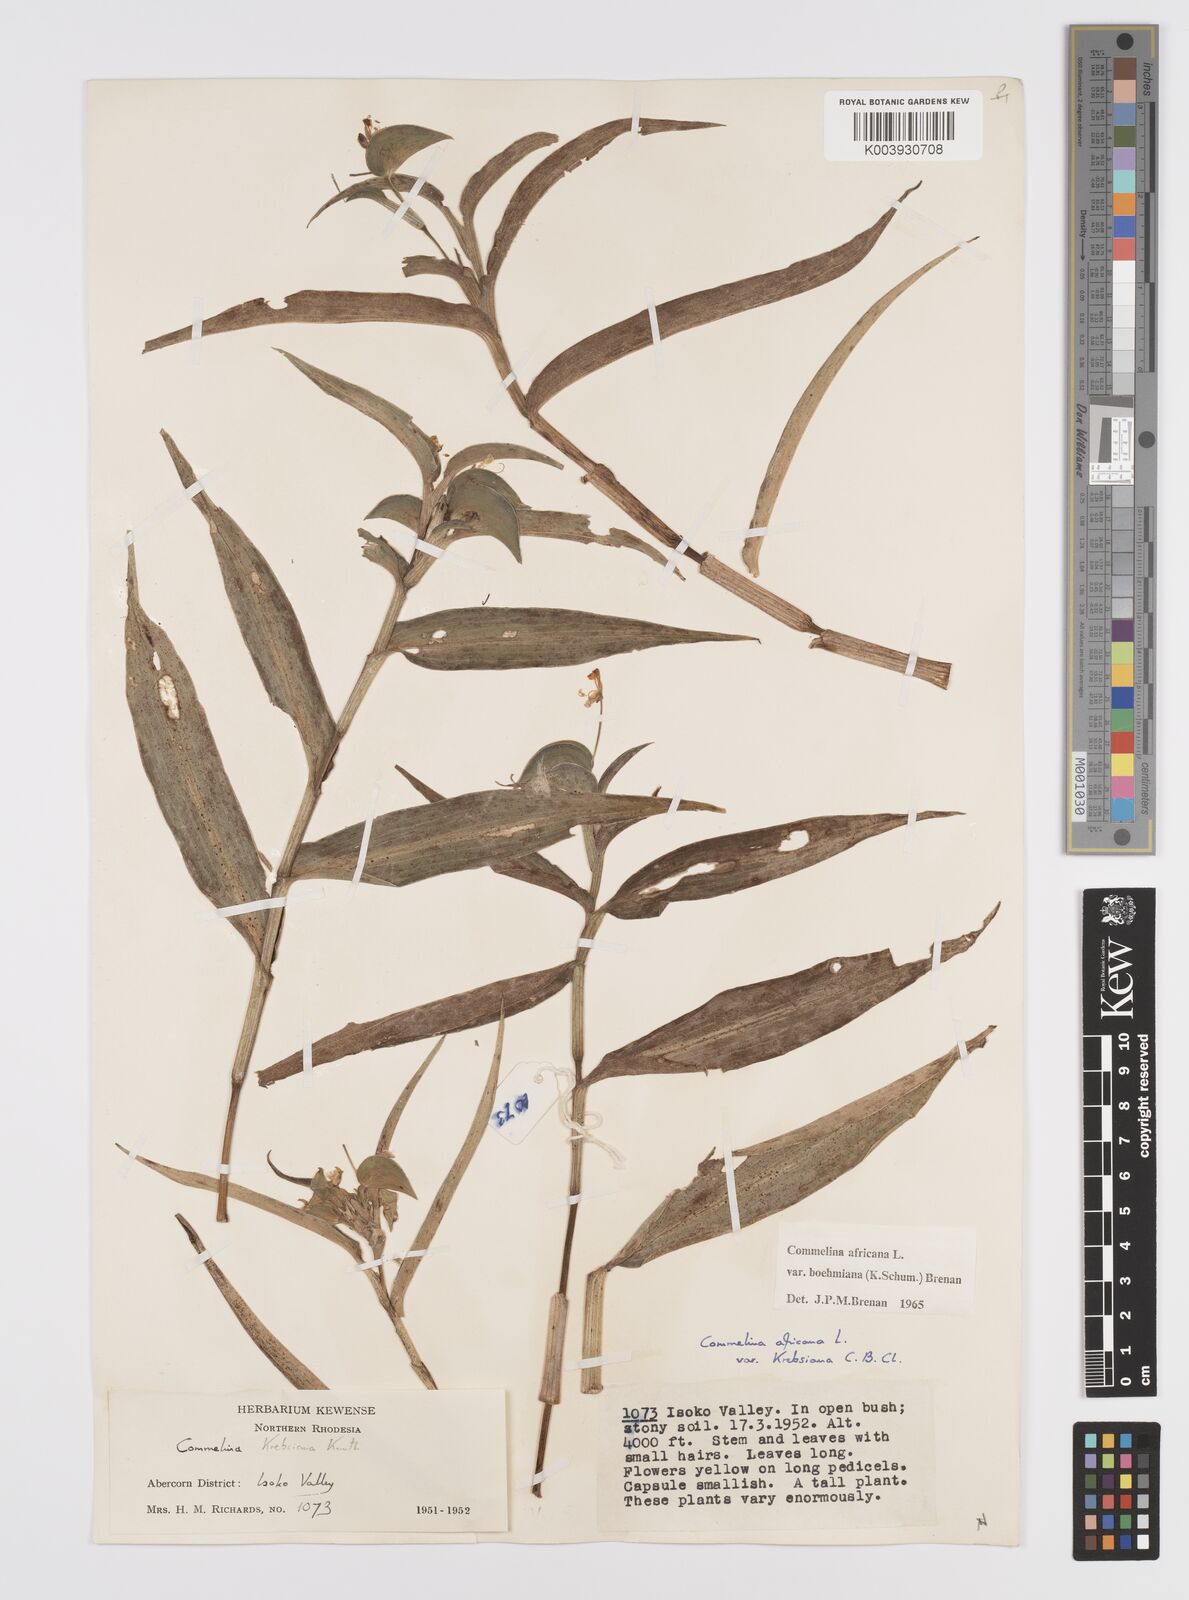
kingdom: Plantae
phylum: Tracheophyta
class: Liliopsida
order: Commelinales
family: Commelinaceae
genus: Commelina
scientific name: Commelina africana
